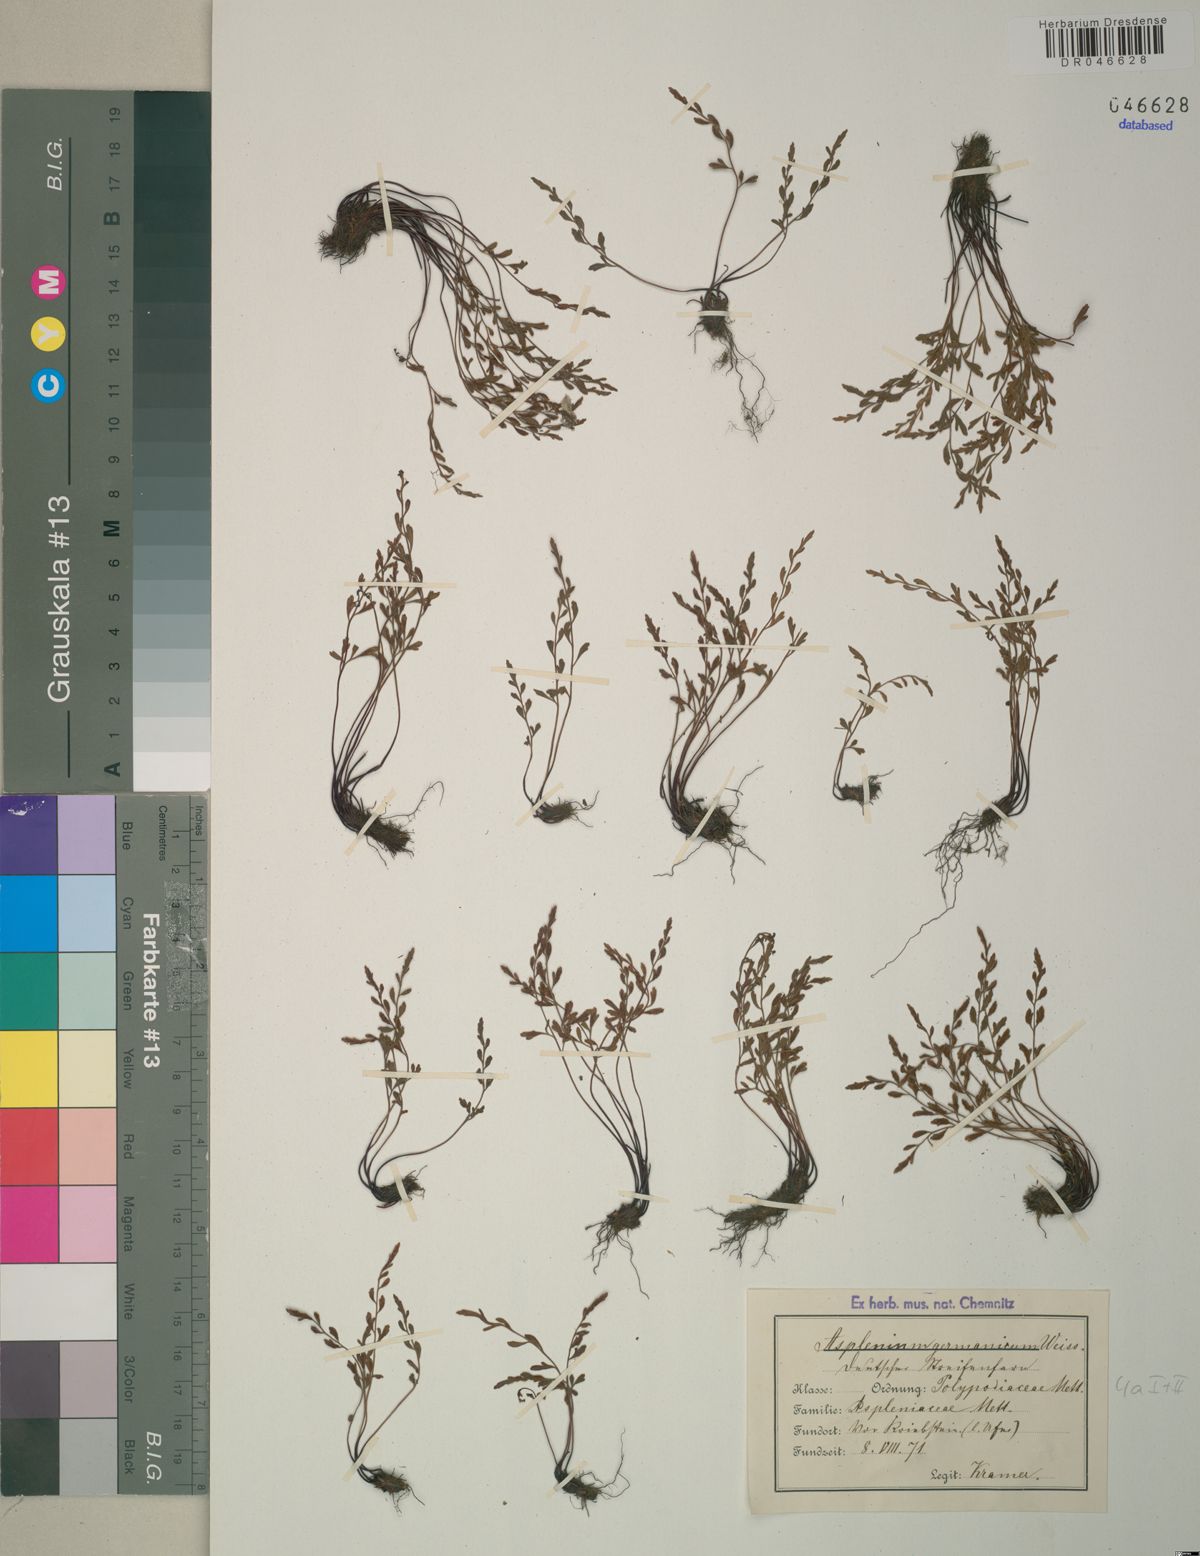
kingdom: Plantae
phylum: Tracheophyta
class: Polypodiopsida
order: Polypodiales
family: Aspleniaceae
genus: Asplenium
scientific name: Asplenium
